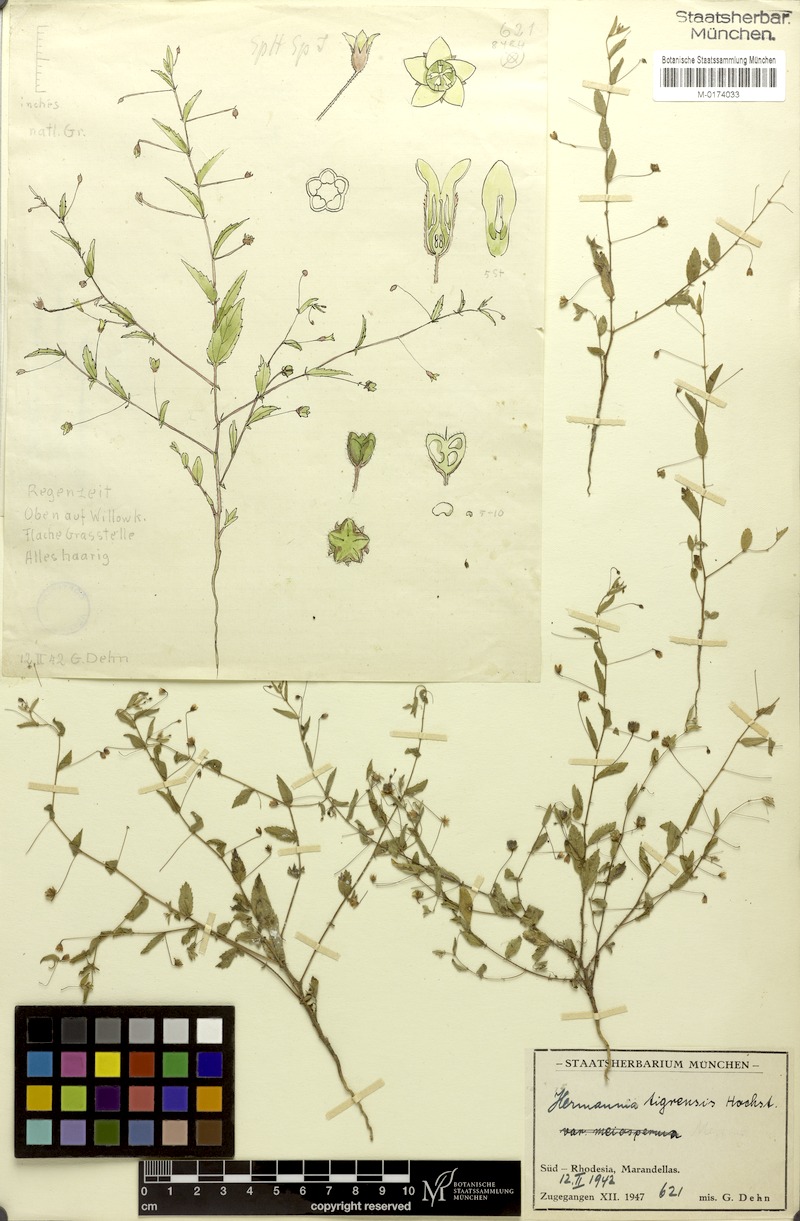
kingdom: Plantae
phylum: Tracheophyta
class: Magnoliopsida
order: Malvales
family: Malvaceae
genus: Hermannia
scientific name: Hermannia tigreensis
